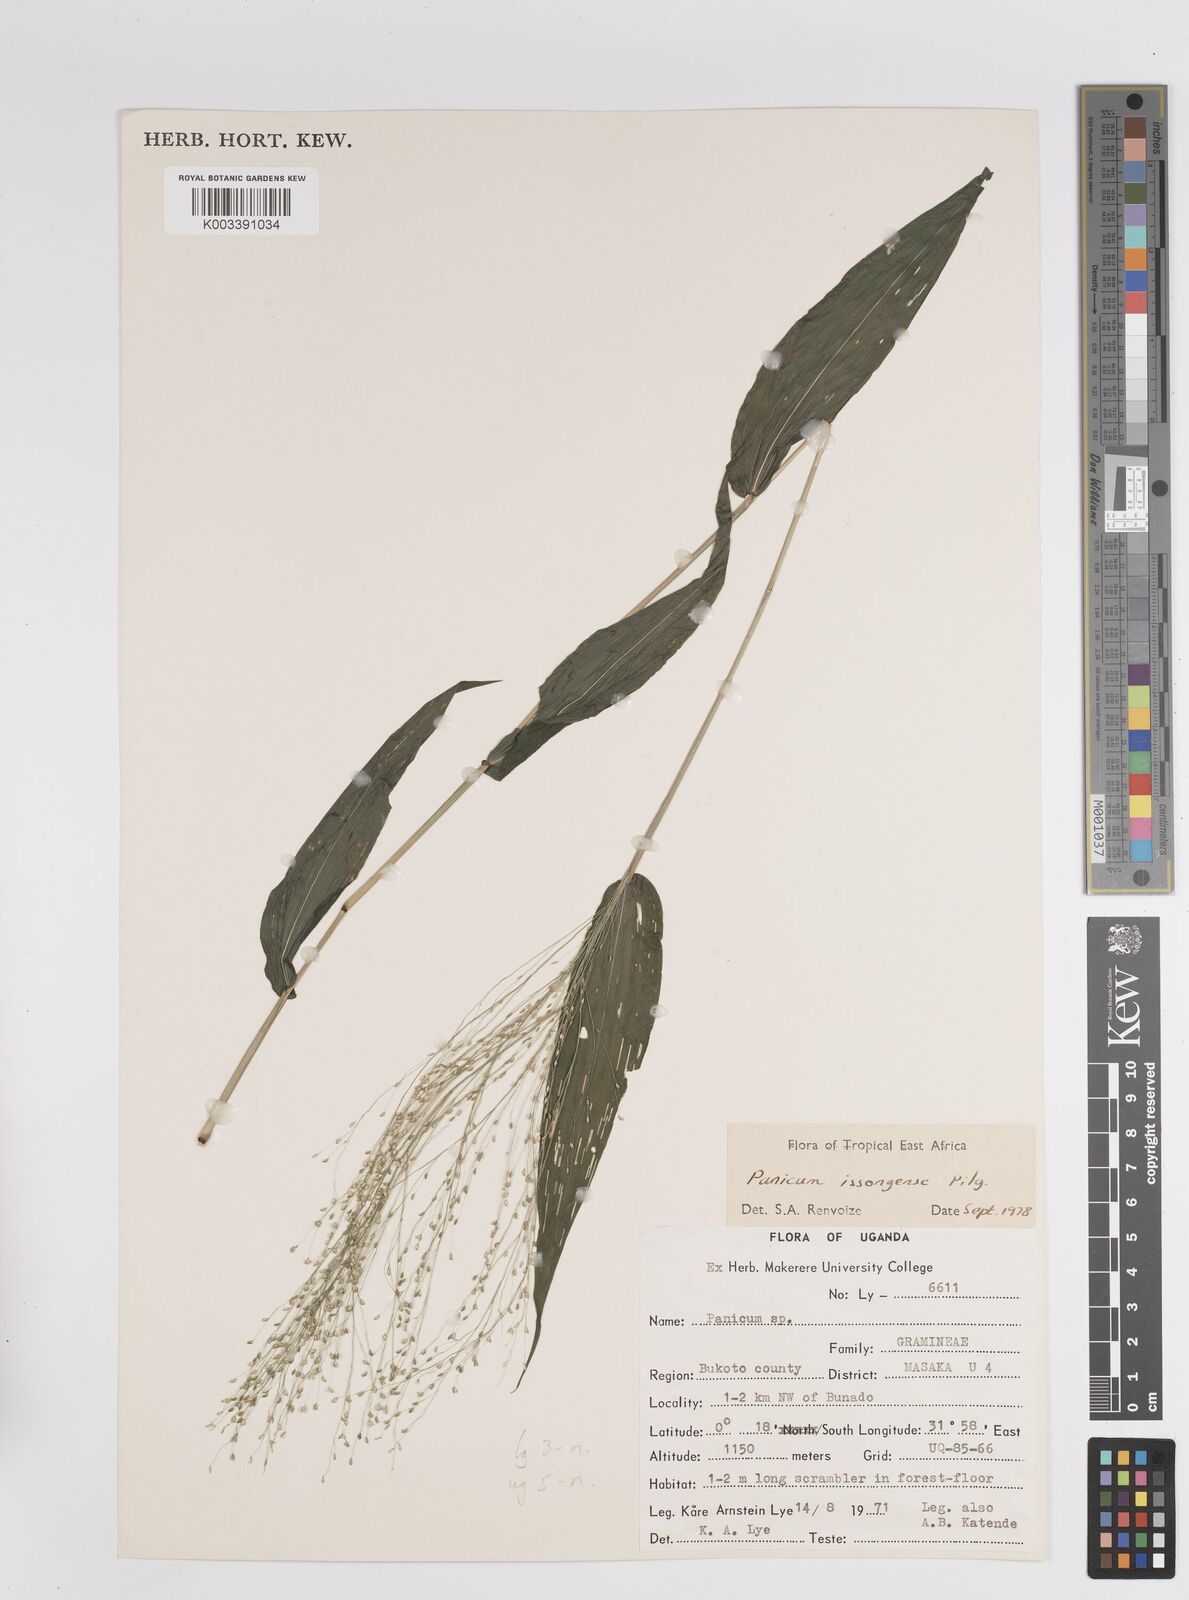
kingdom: Plantae
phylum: Tracheophyta
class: Liliopsida
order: Poales
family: Poaceae
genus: Panicum
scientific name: Panicum issongense
